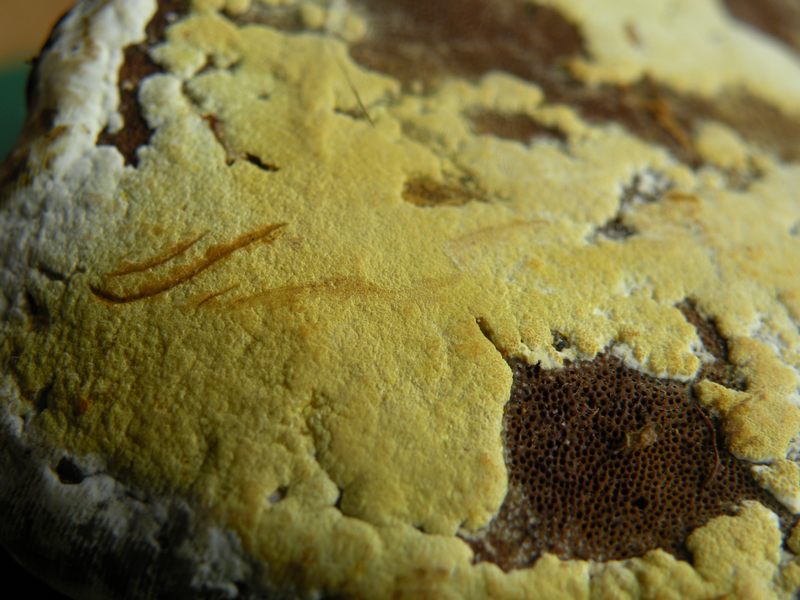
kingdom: Fungi
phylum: Ascomycota
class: Sordariomycetes
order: Hypocreales
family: Hypocreaceae
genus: Trichoderma
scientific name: Trichoderma pulvinatum
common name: snyltende kødkerne
